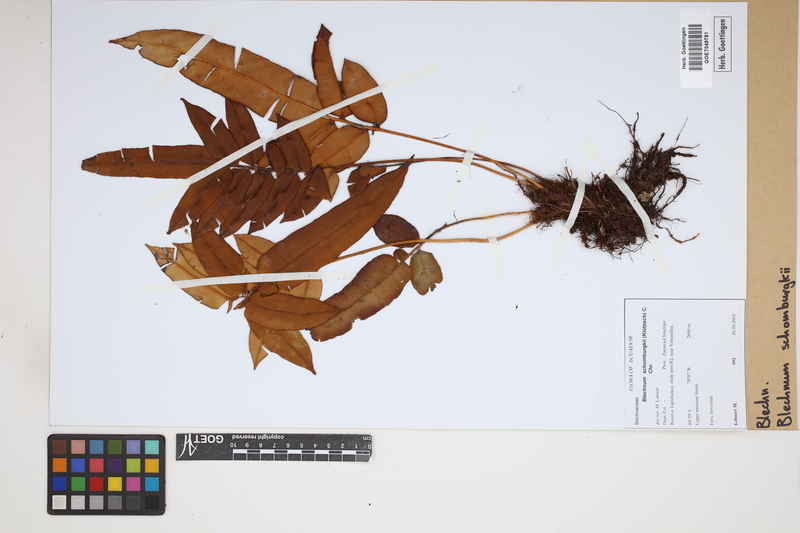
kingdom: Plantae
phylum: Tracheophyta
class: Polypodiopsida
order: Polypodiales
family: Blechnaceae
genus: Lomariocycas
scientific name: Lomariocycas schomburgkii
